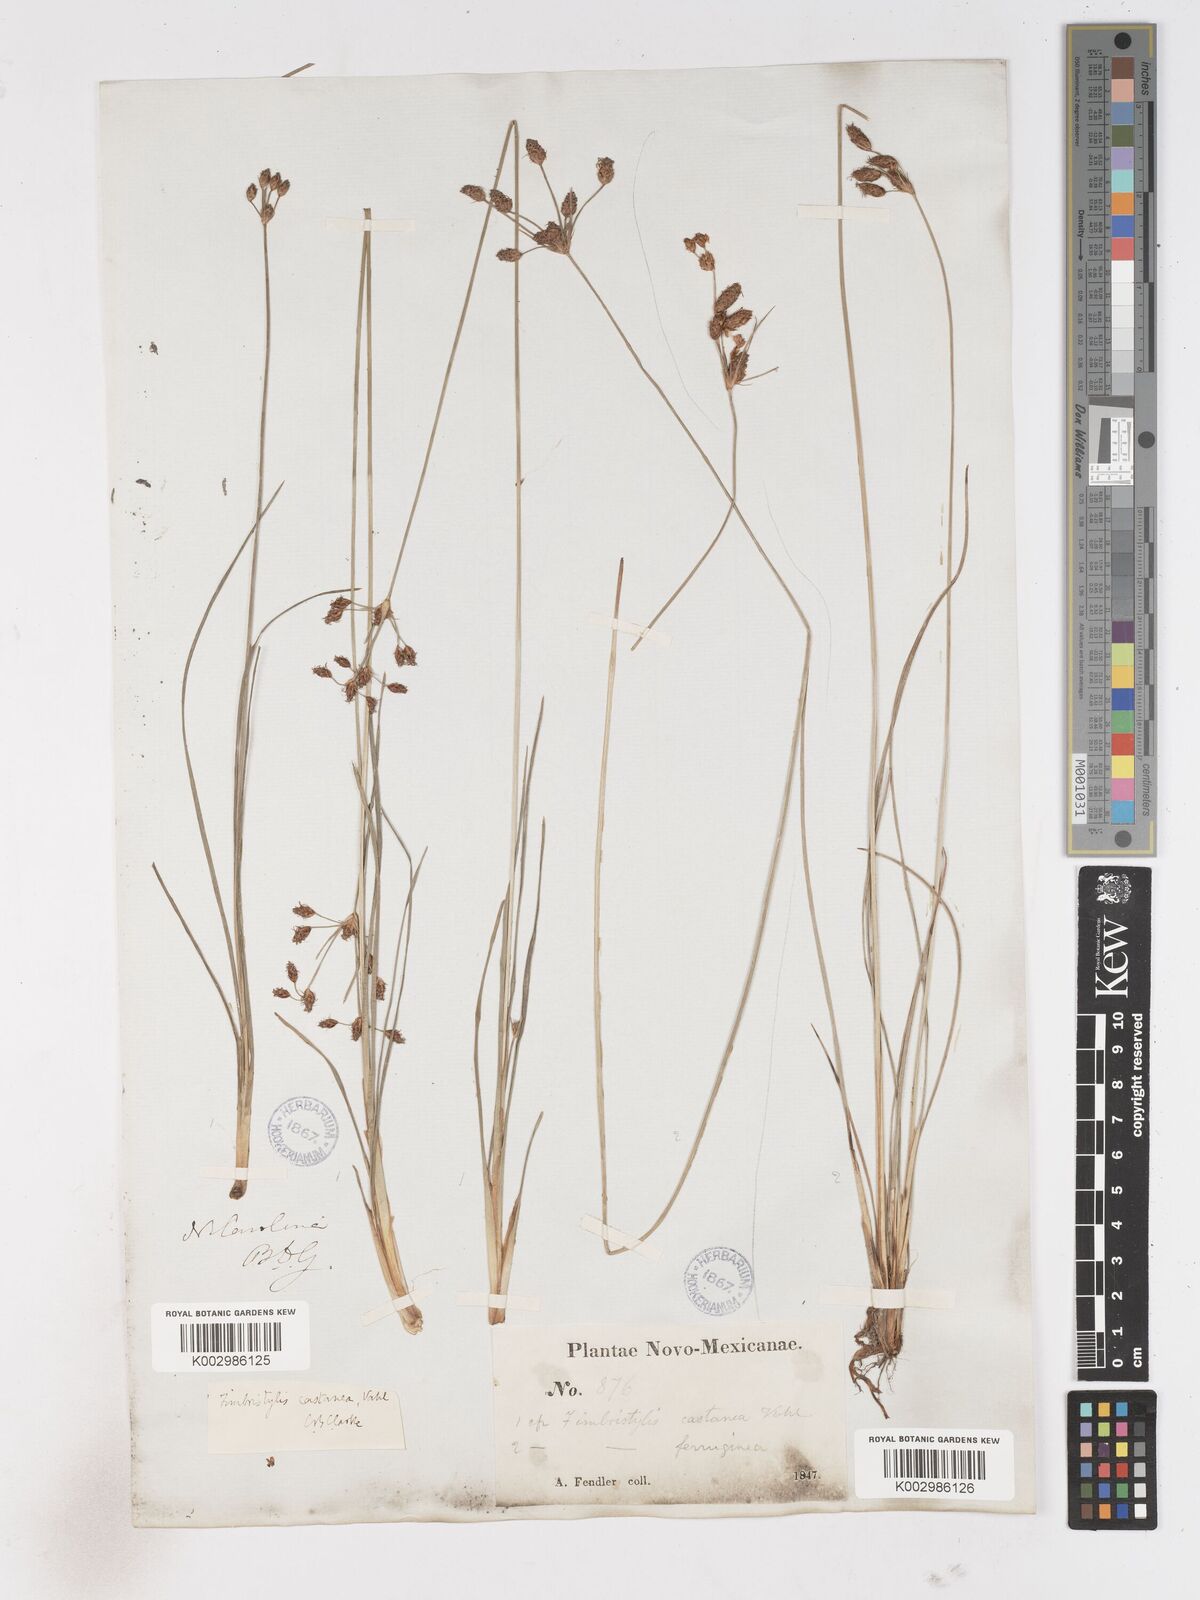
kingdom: Plantae
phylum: Tracheophyta
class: Liliopsida
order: Poales
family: Cyperaceae
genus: Fimbristylis
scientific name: Fimbristylis spadicea
